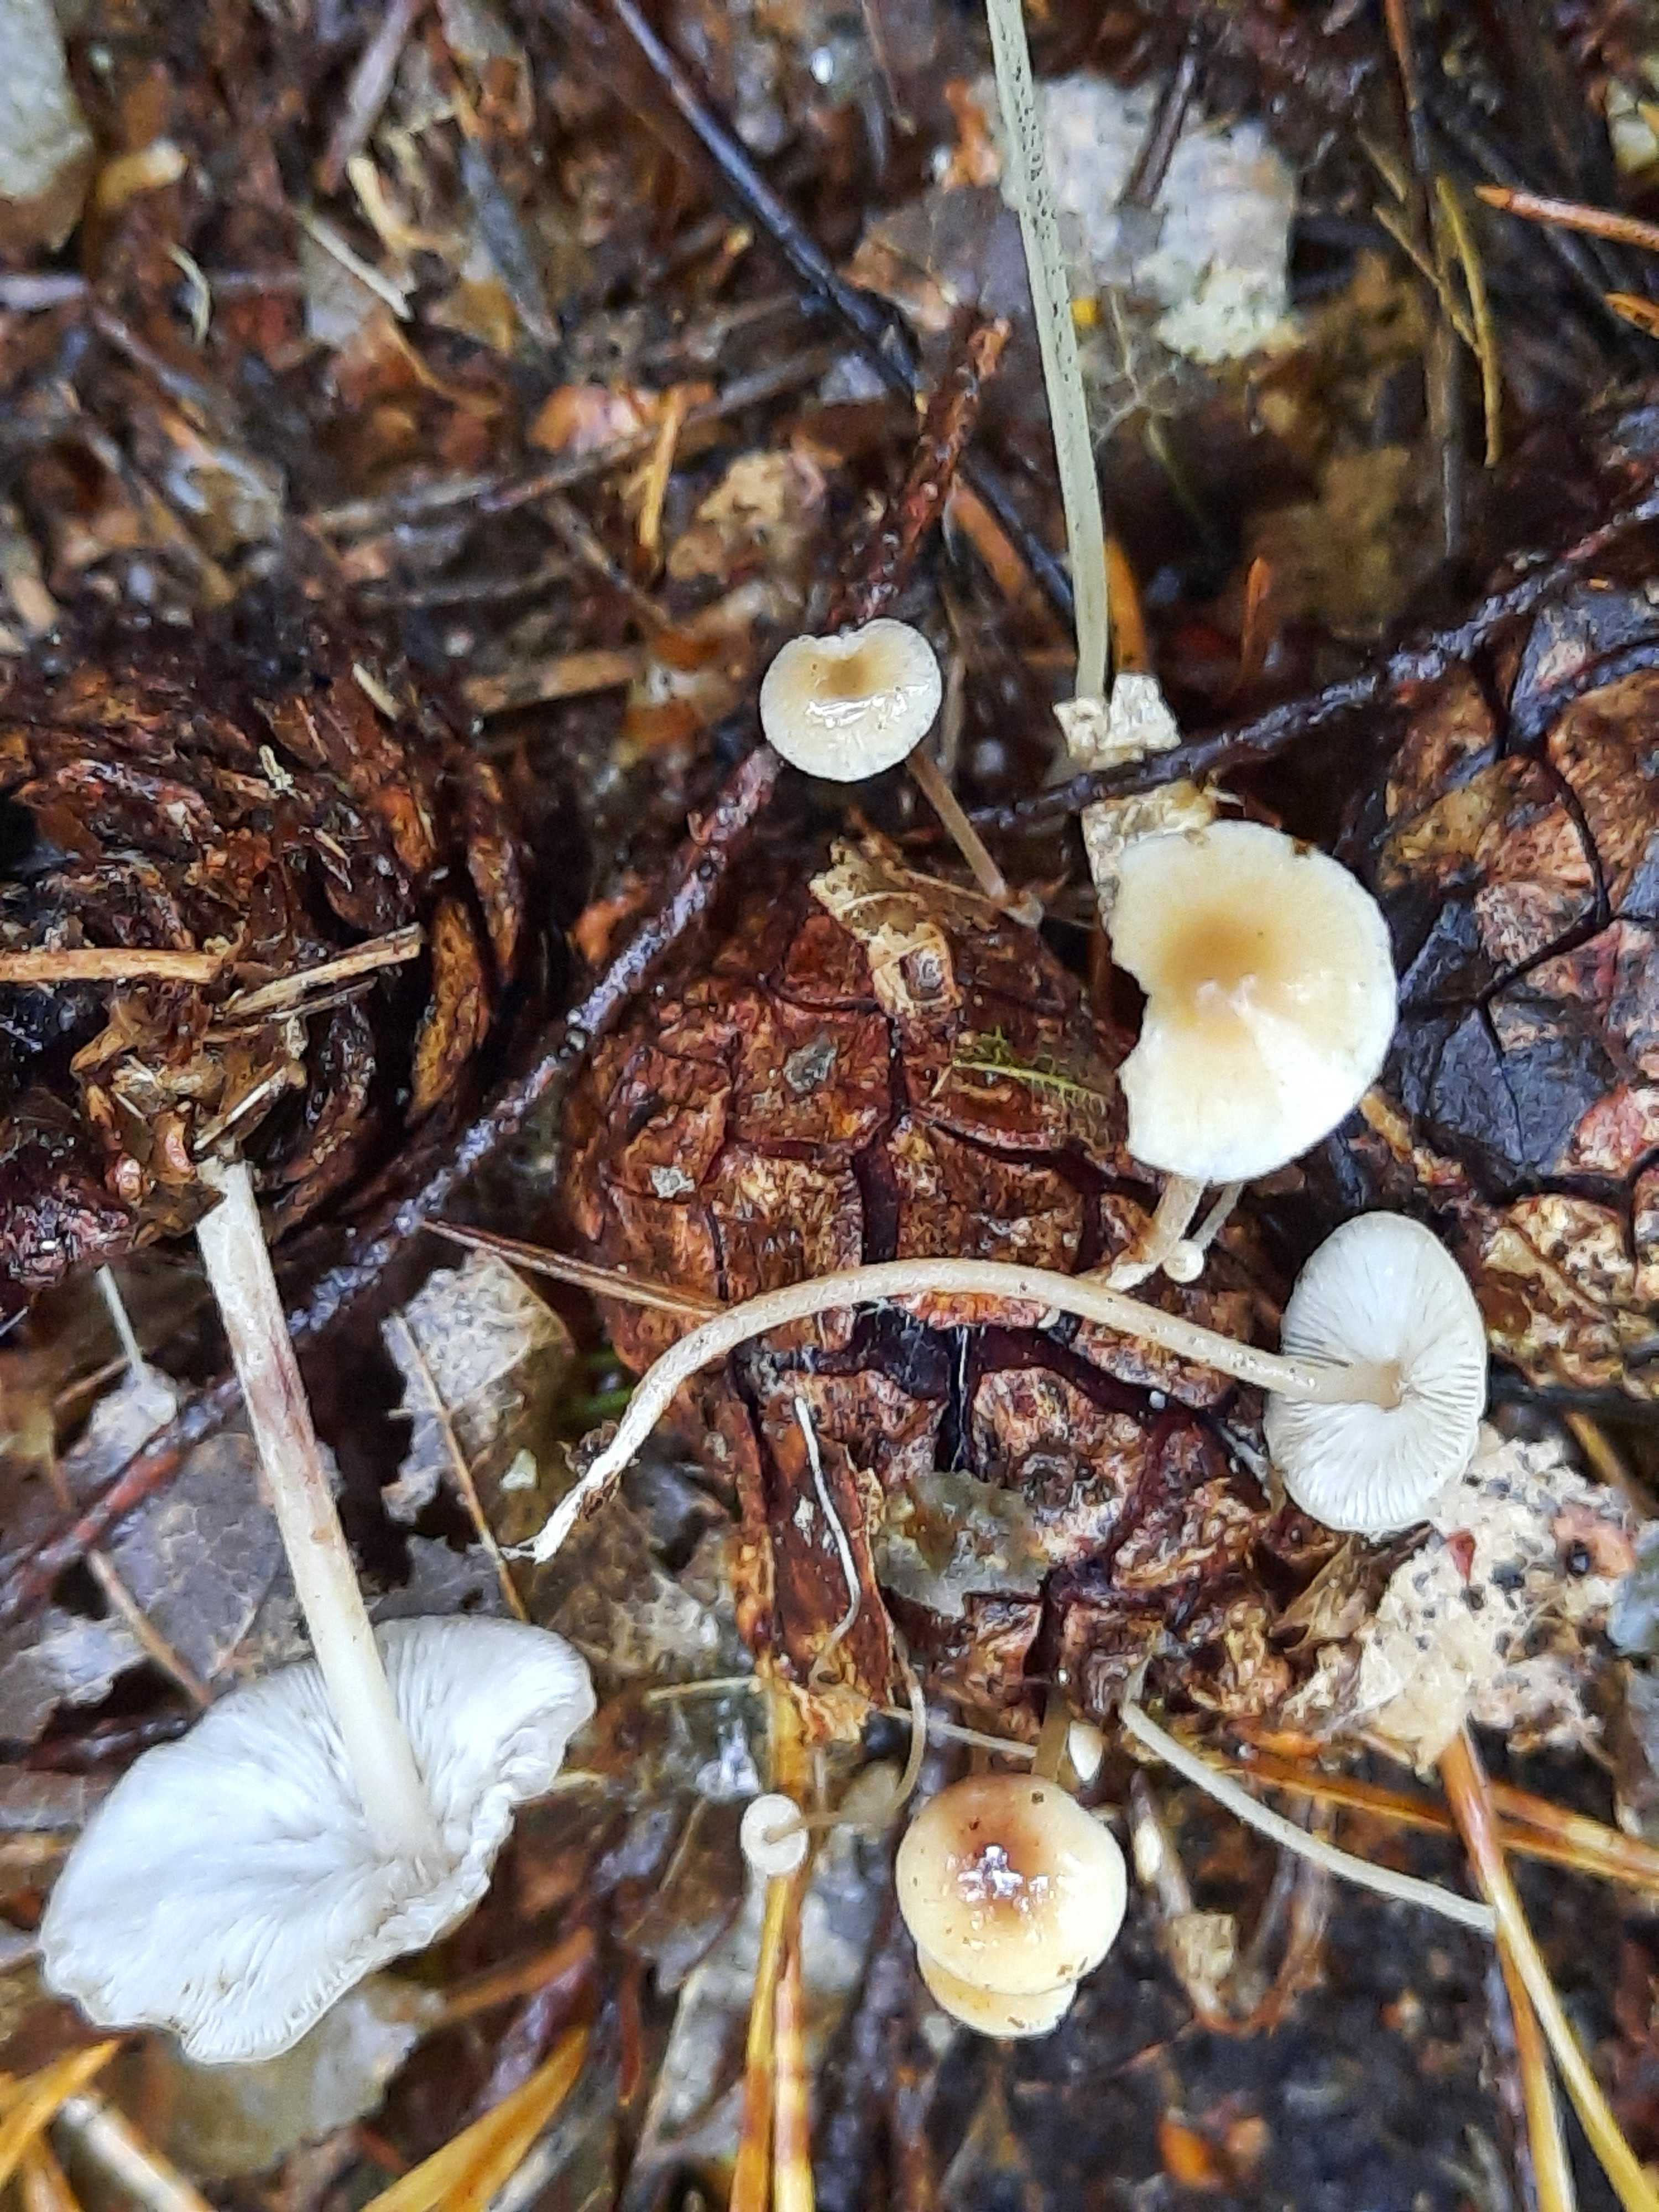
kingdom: Fungi
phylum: Basidiomycota
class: Agaricomycetes
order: Agaricales
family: Marasmiaceae
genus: Baeospora
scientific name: Baeospora myosura
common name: koglebruskhat
